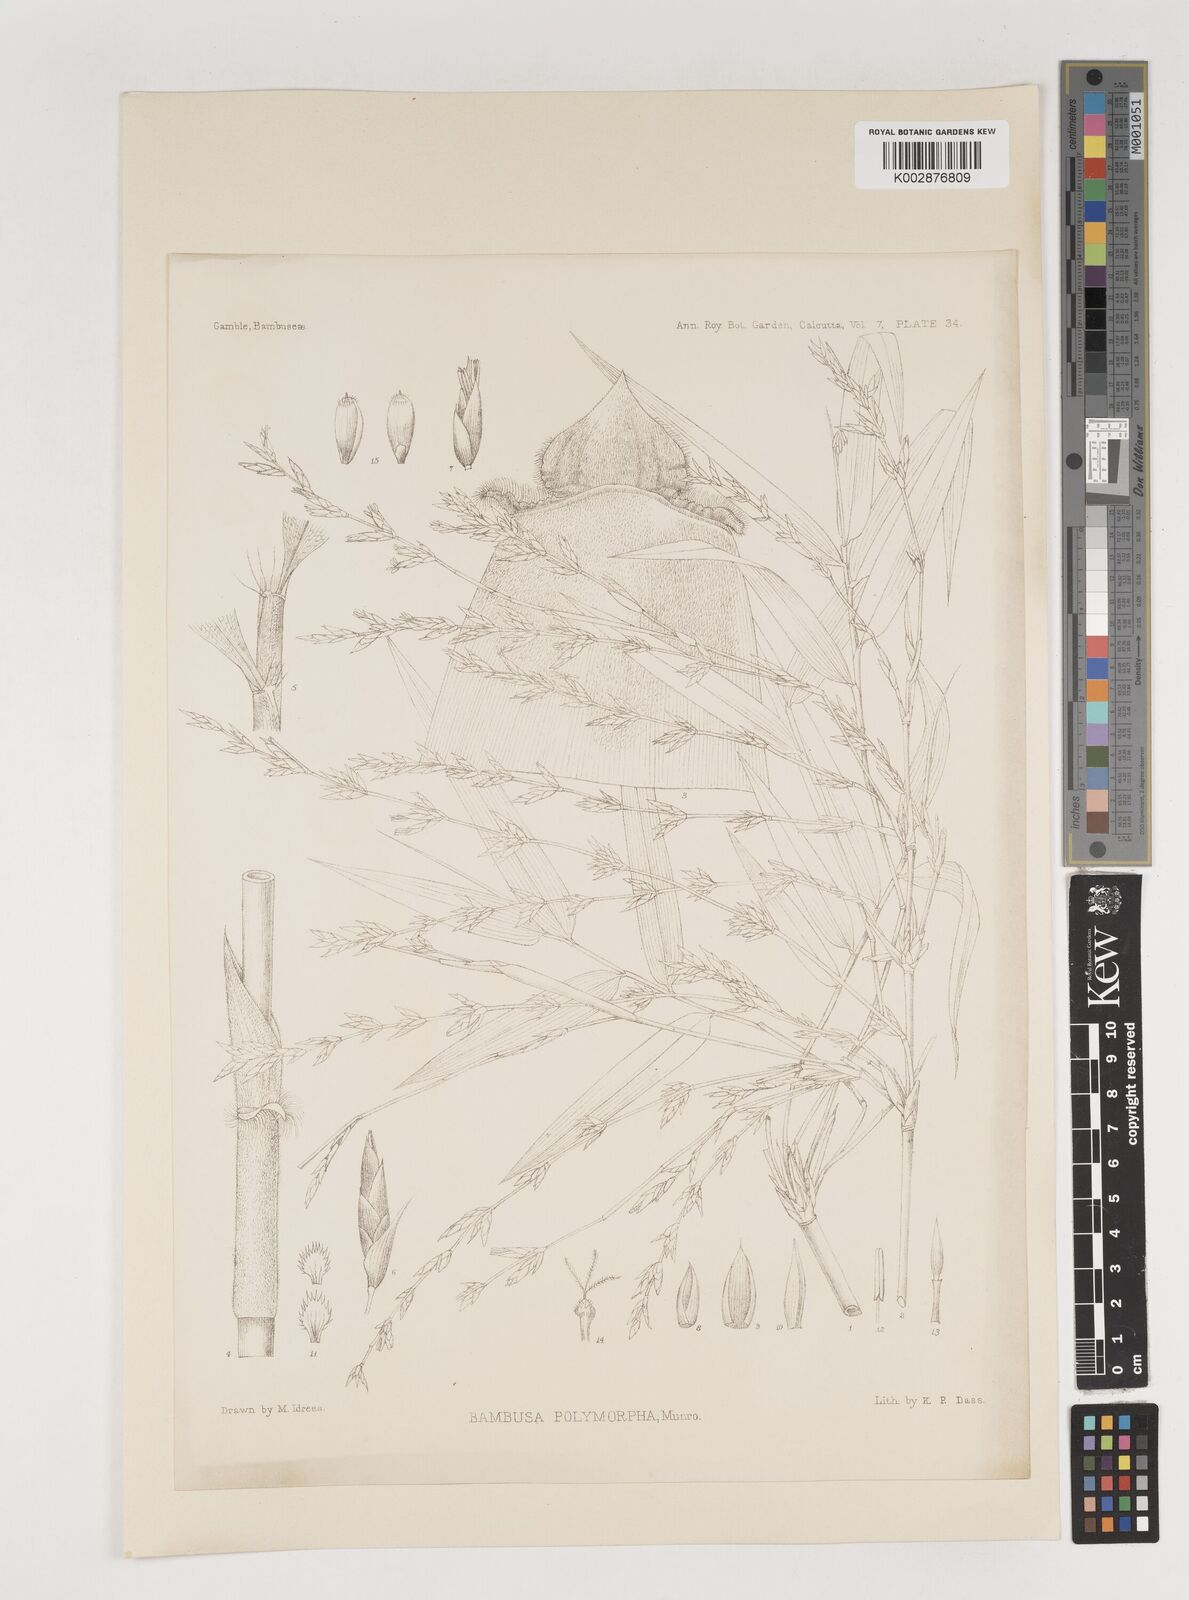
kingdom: Plantae
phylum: Tracheophyta
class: Liliopsida
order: Poales
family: Poaceae
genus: Bambusa
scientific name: Bambusa polymorpha
